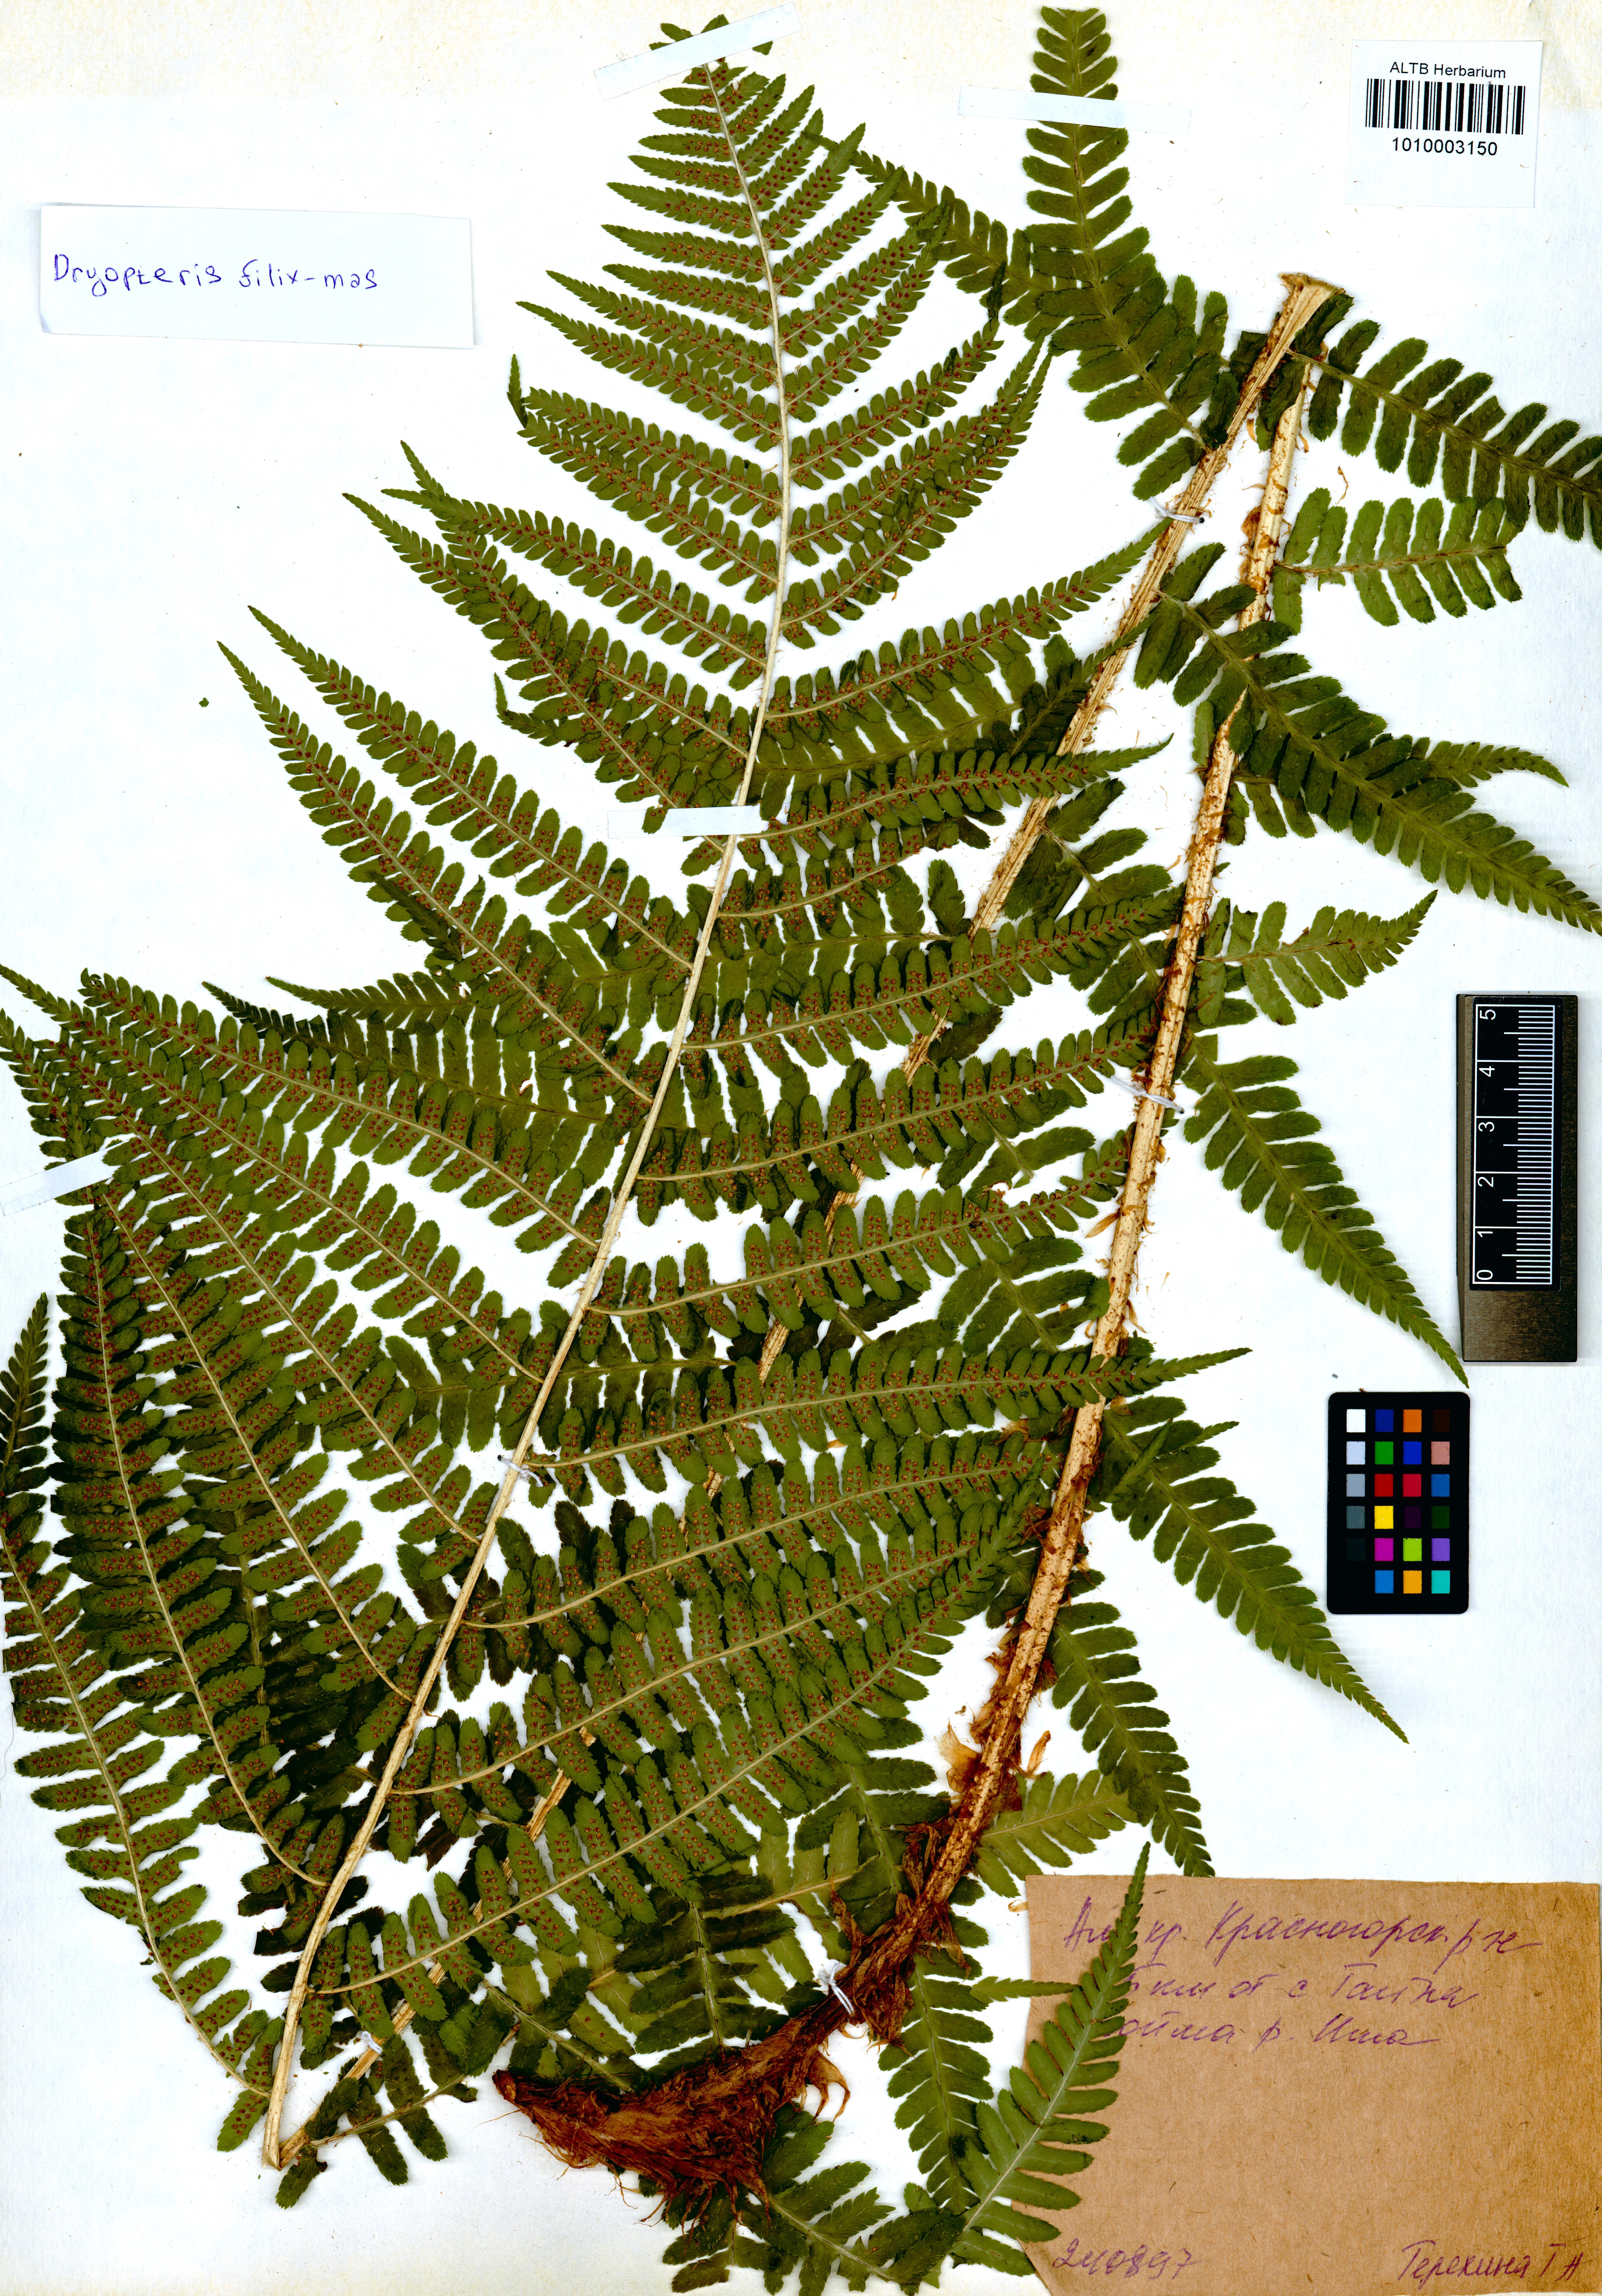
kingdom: Plantae
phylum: Tracheophyta
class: Polypodiopsida
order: Polypodiales
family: Dryopteridaceae
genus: Dryopteris
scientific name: Dryopteris filix-mas
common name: Male fern
